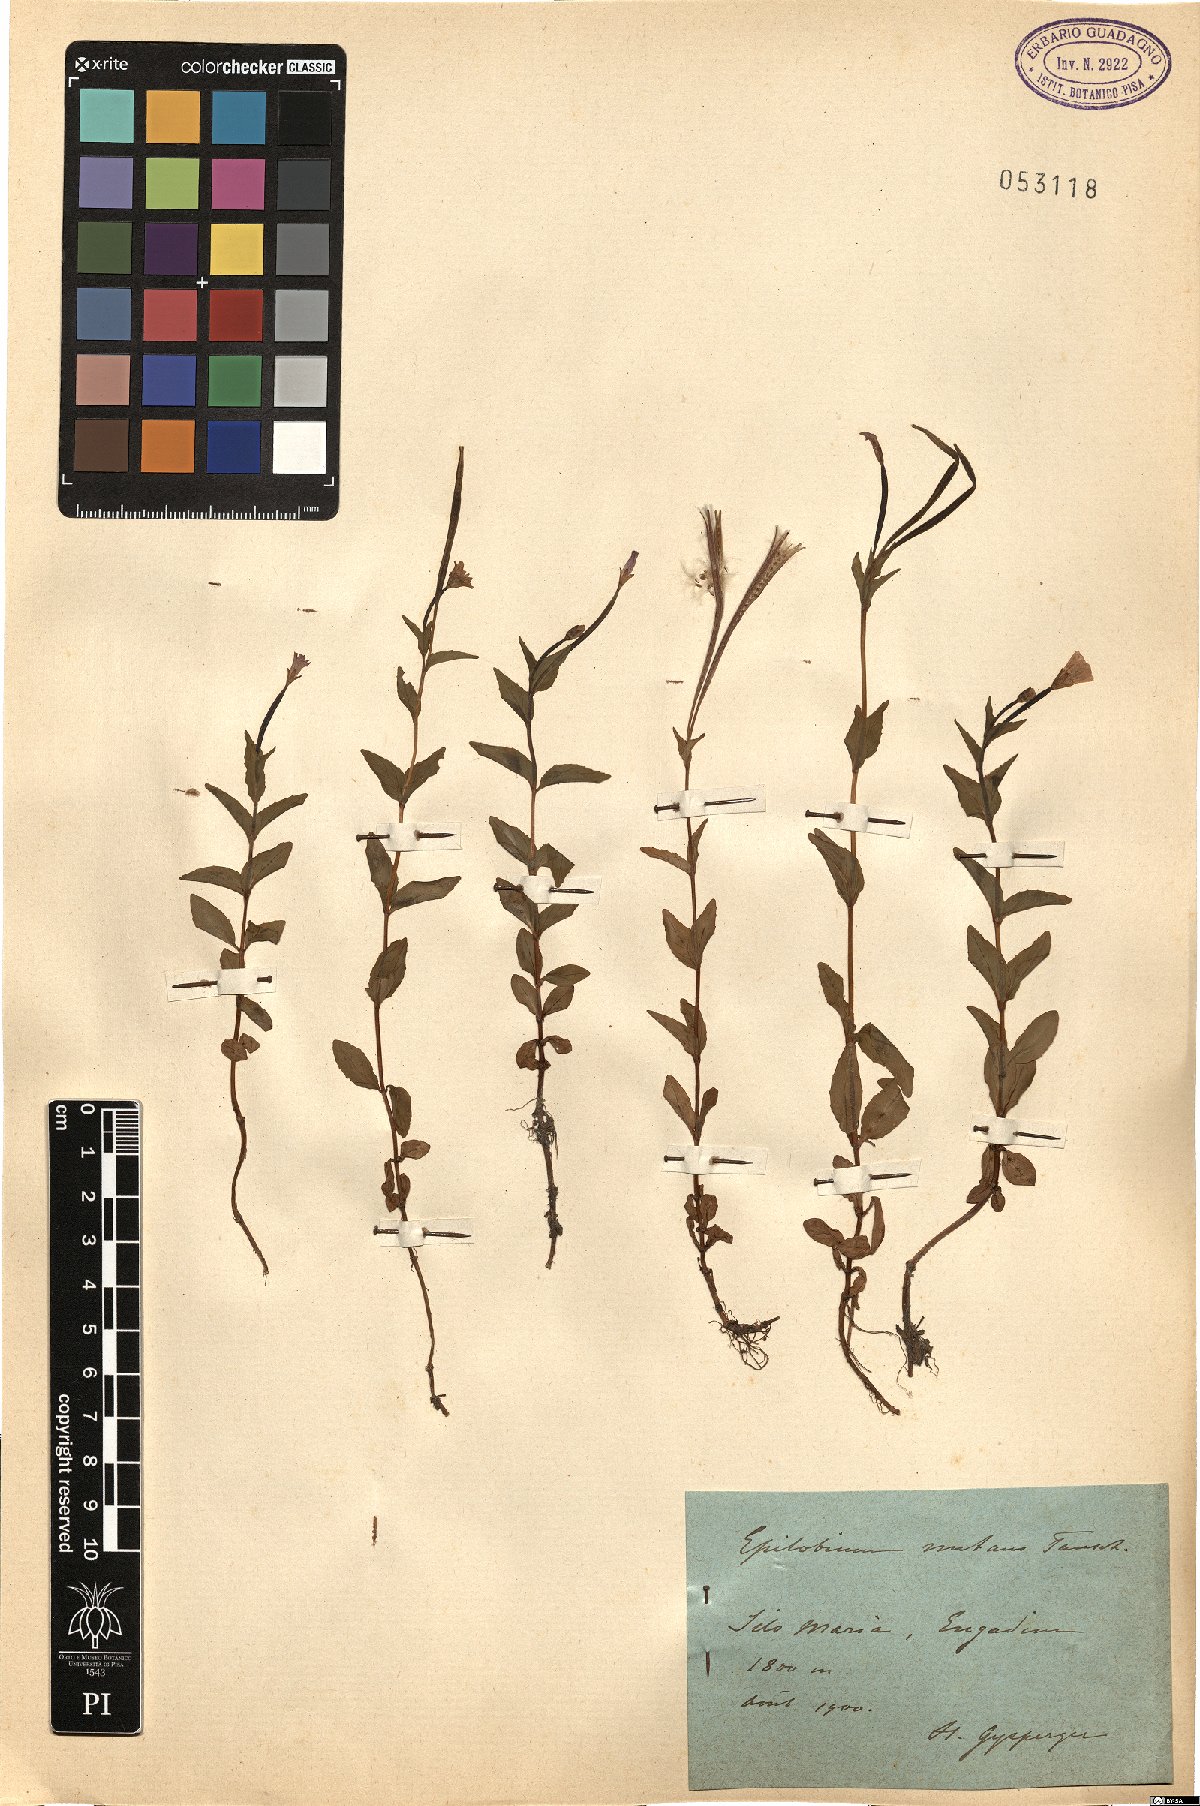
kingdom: Plantae
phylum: Tracheophyta
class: Magnoliopsida
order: Myrtales
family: Onagraceae
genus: Epilobium
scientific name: Epilobium nutans
